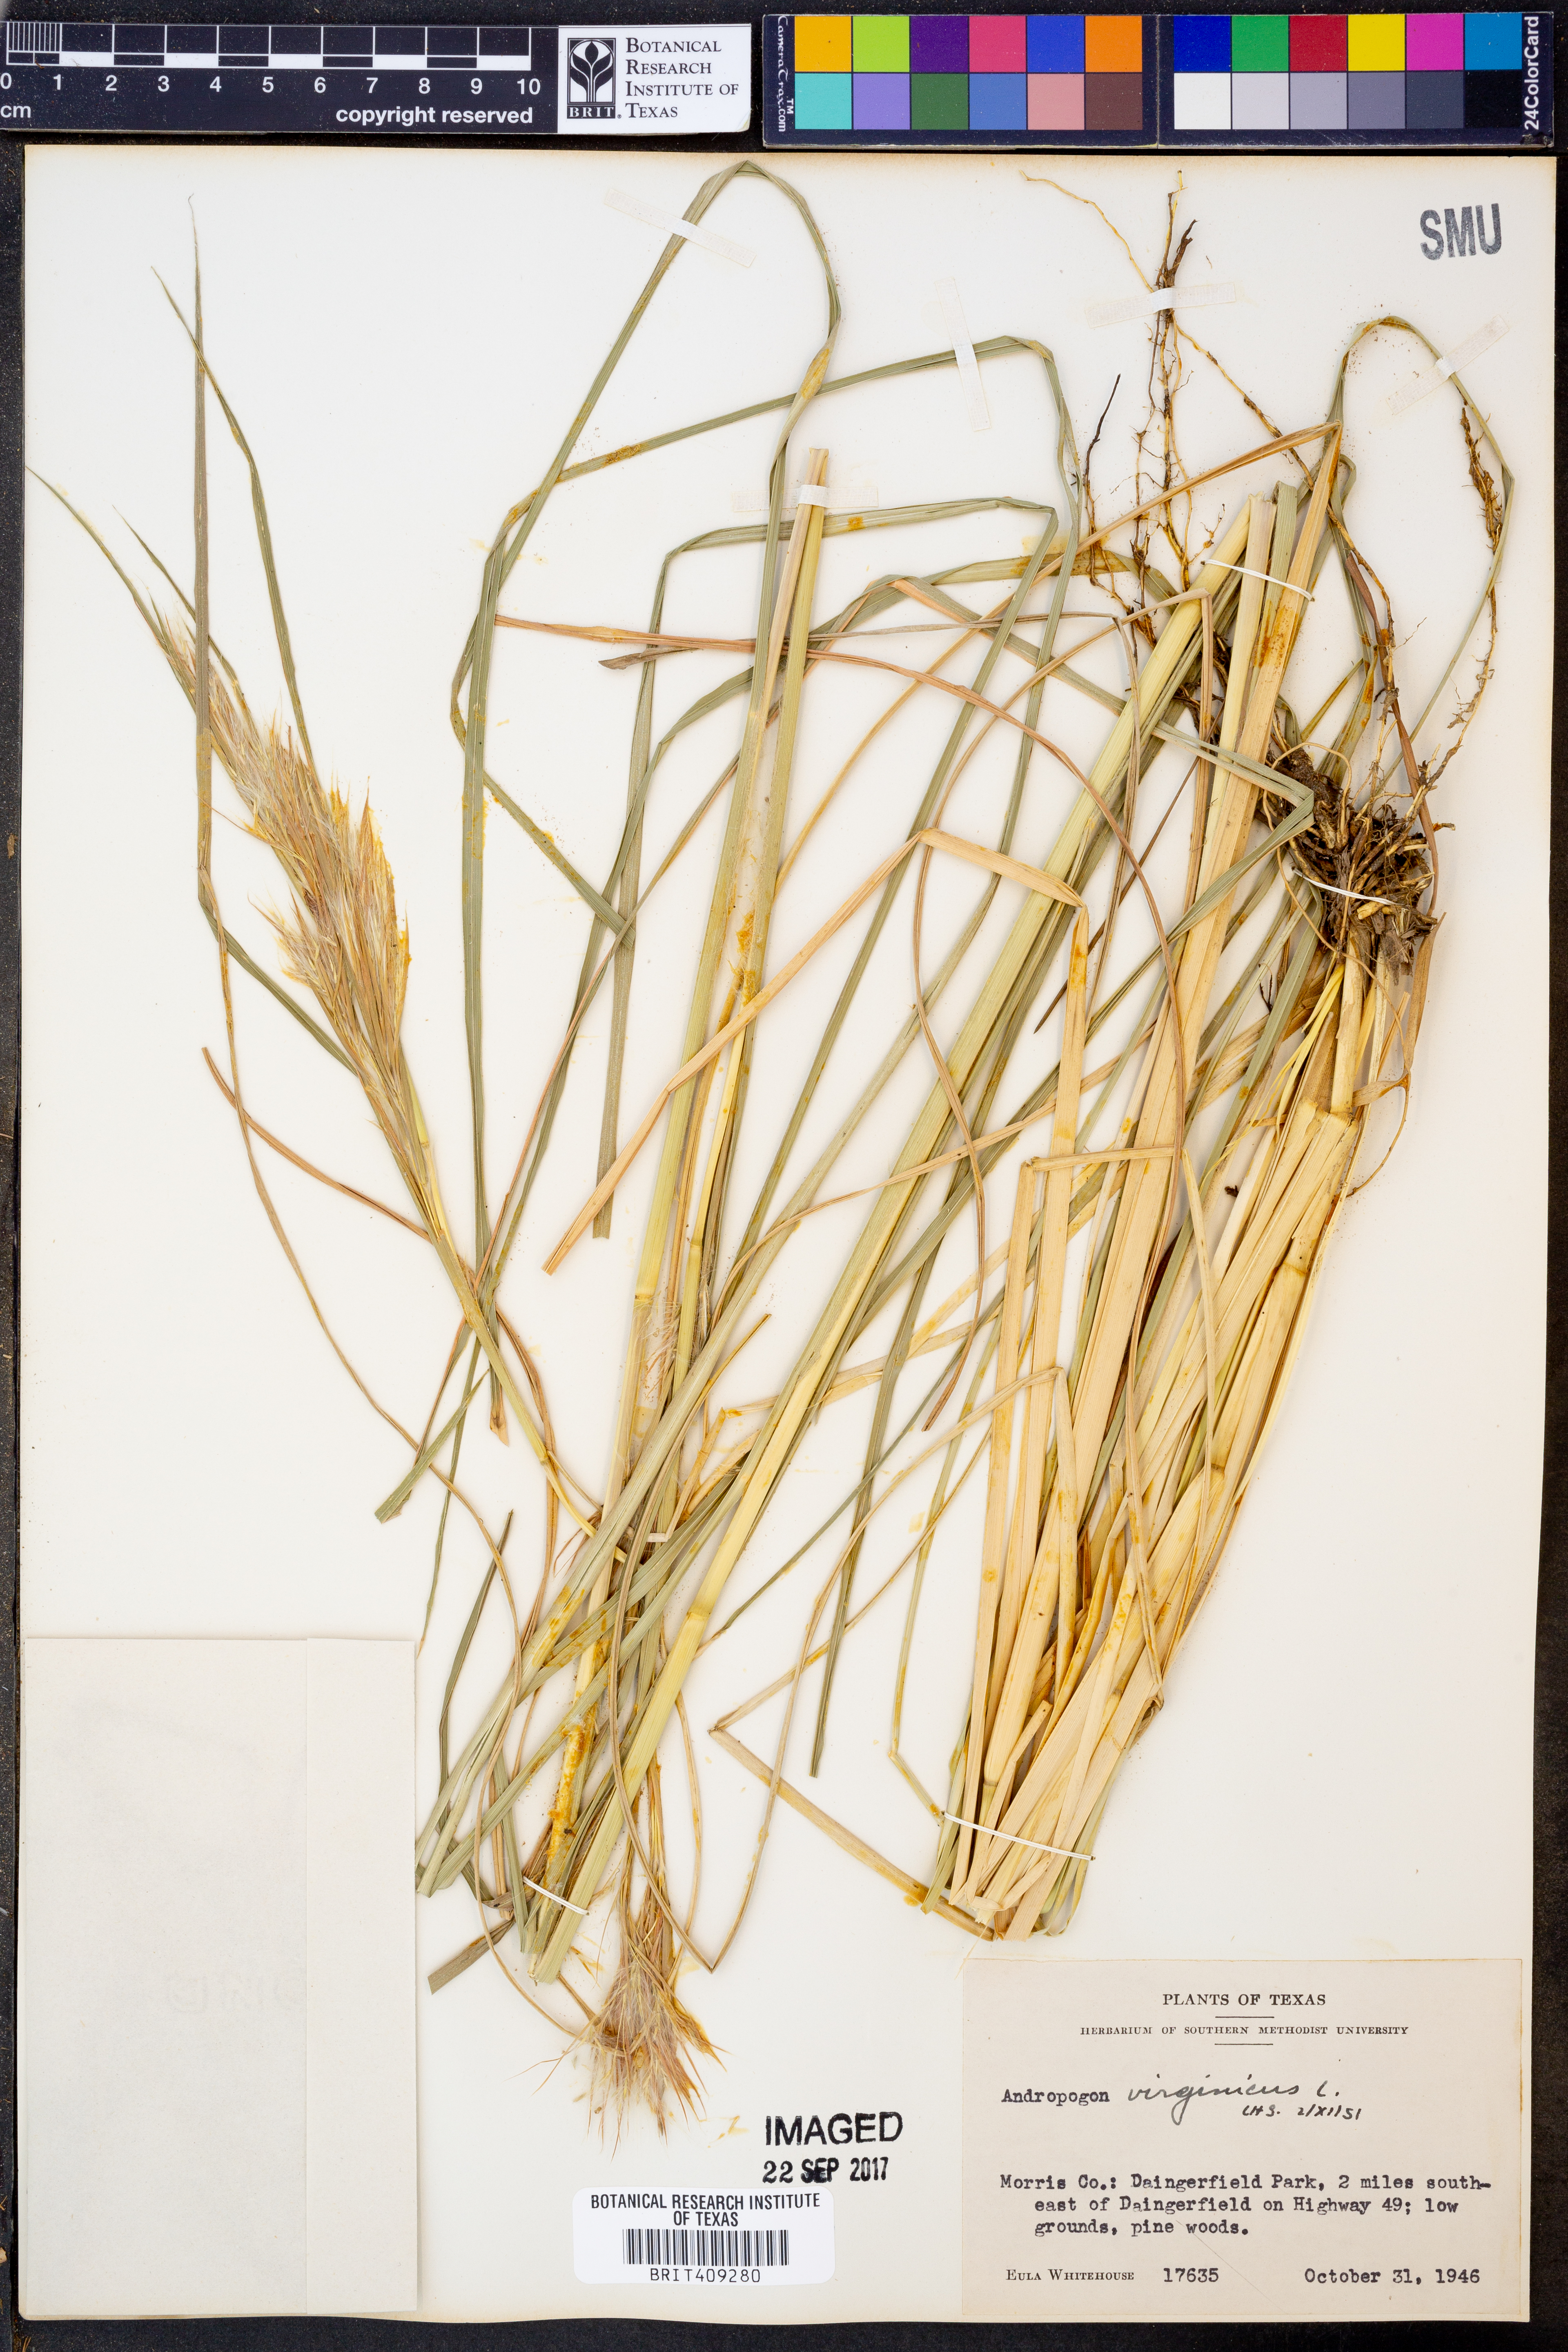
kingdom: Plantae
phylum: Tracheophyta
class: Liliopsida
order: Poales
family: Poaceae
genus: Andropogon
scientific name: Andropogon virginicus
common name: Broomsedge bluestem
